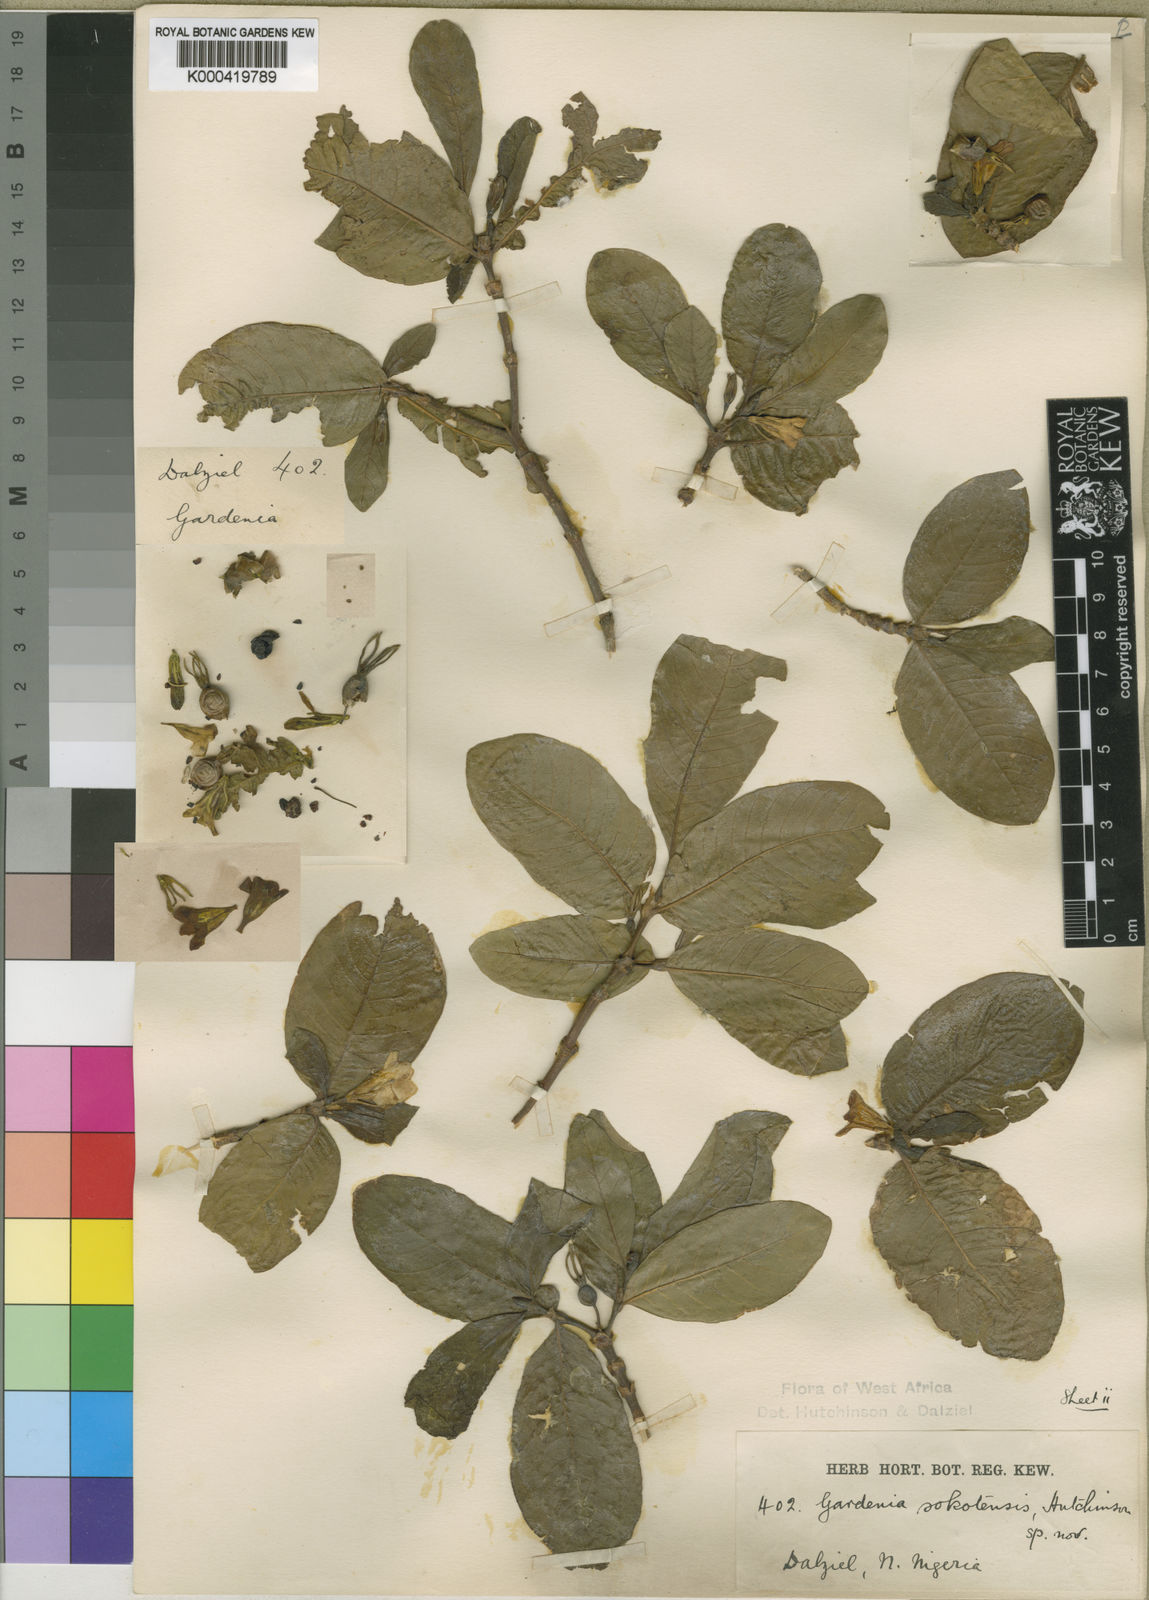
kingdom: Plantae
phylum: Tracheophyta
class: Magnoliopsida
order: Gentianales
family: Rubiaceae
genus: Gardenia
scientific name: Gardenia sokotensis
